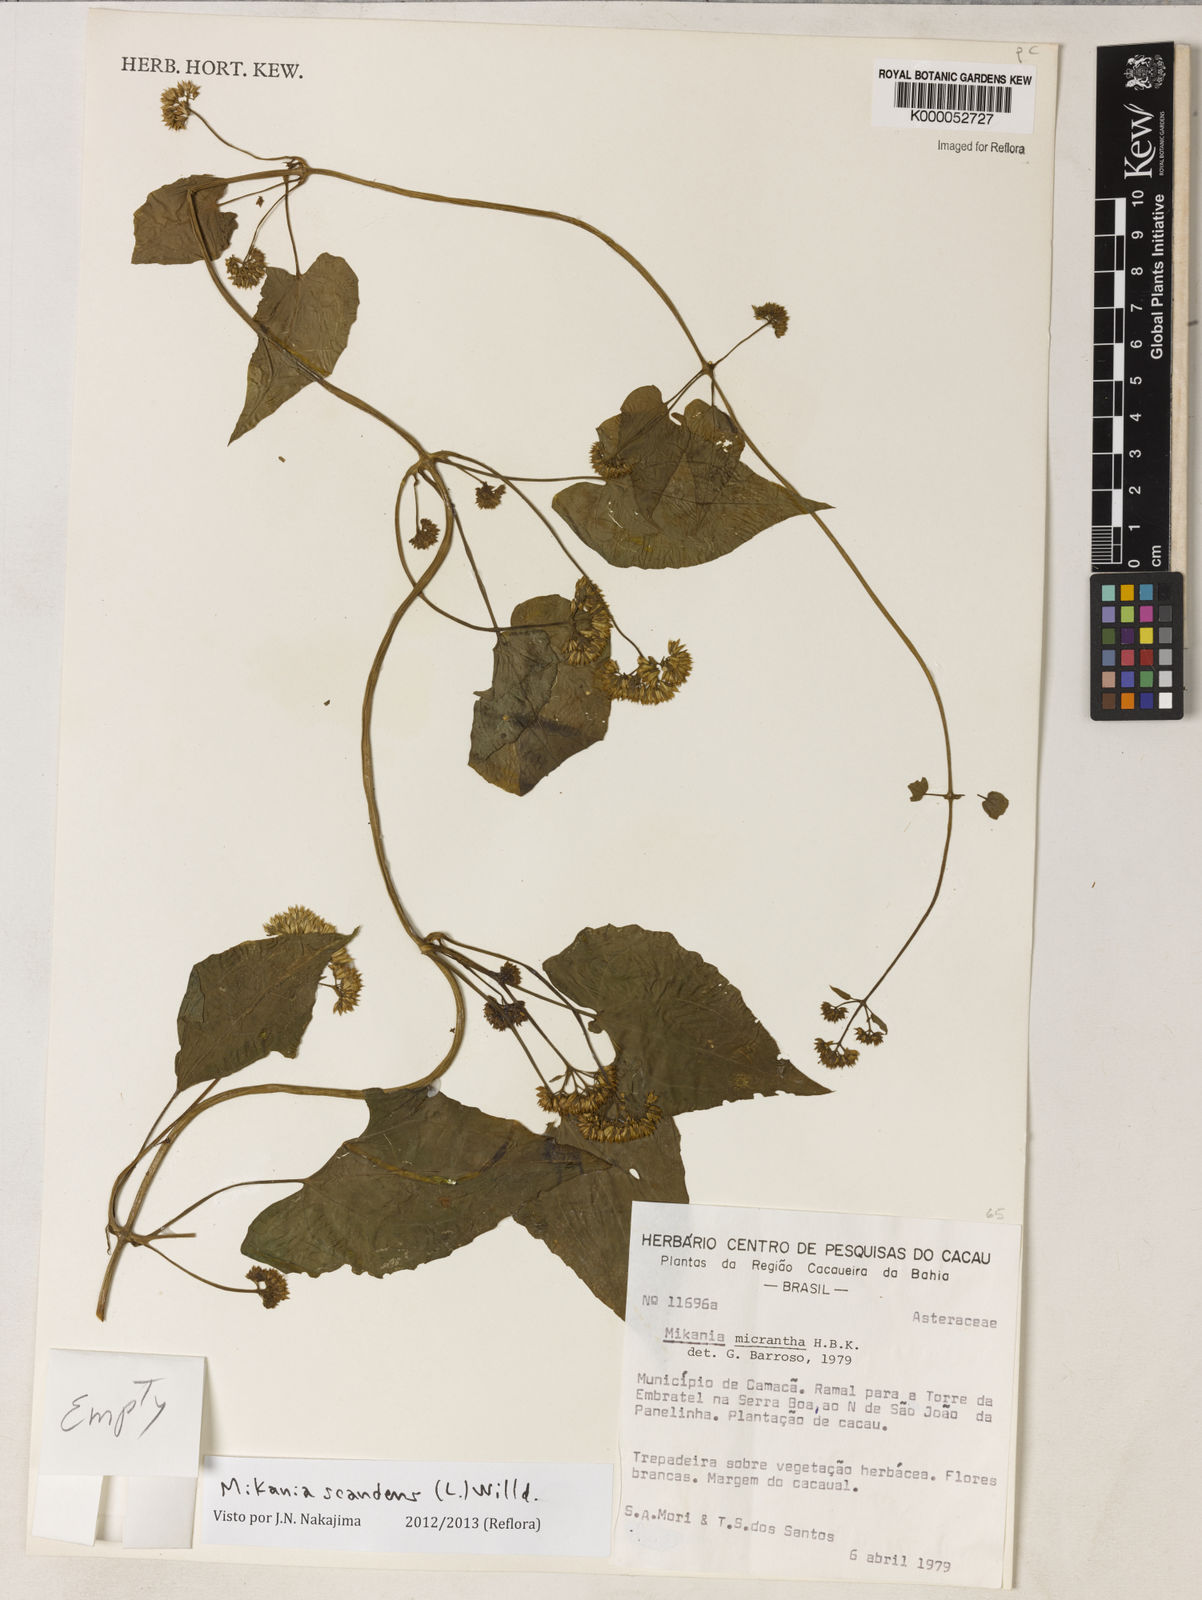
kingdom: Plantae
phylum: Tracheophyta
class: Magnoliopsida
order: Asterales
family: Asteraceae
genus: Mikania
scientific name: Mikania scandens
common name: Climbing hempvine
